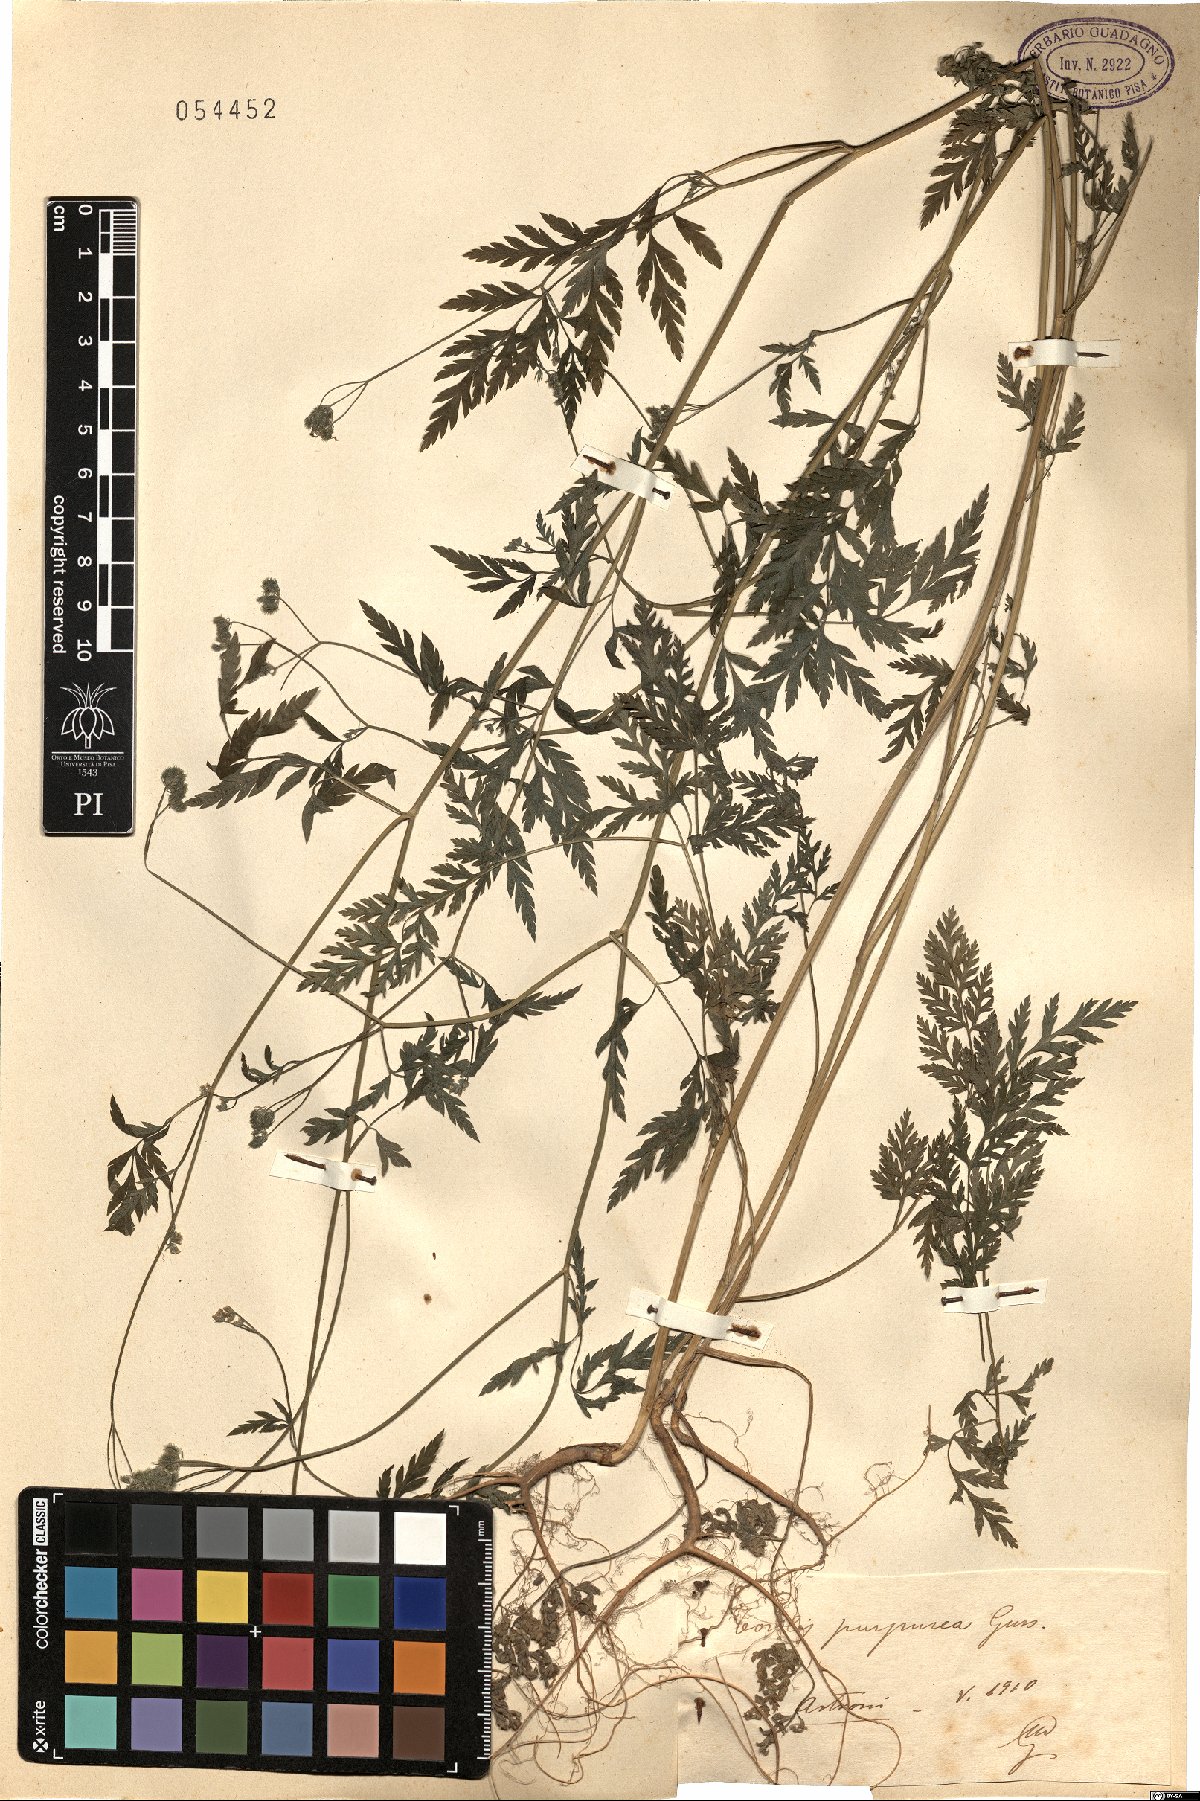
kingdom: Plantae
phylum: Tracheophyta
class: Magnoliopsida
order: Apiales
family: Apiaceae
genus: Torilis
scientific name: Torilis africana
